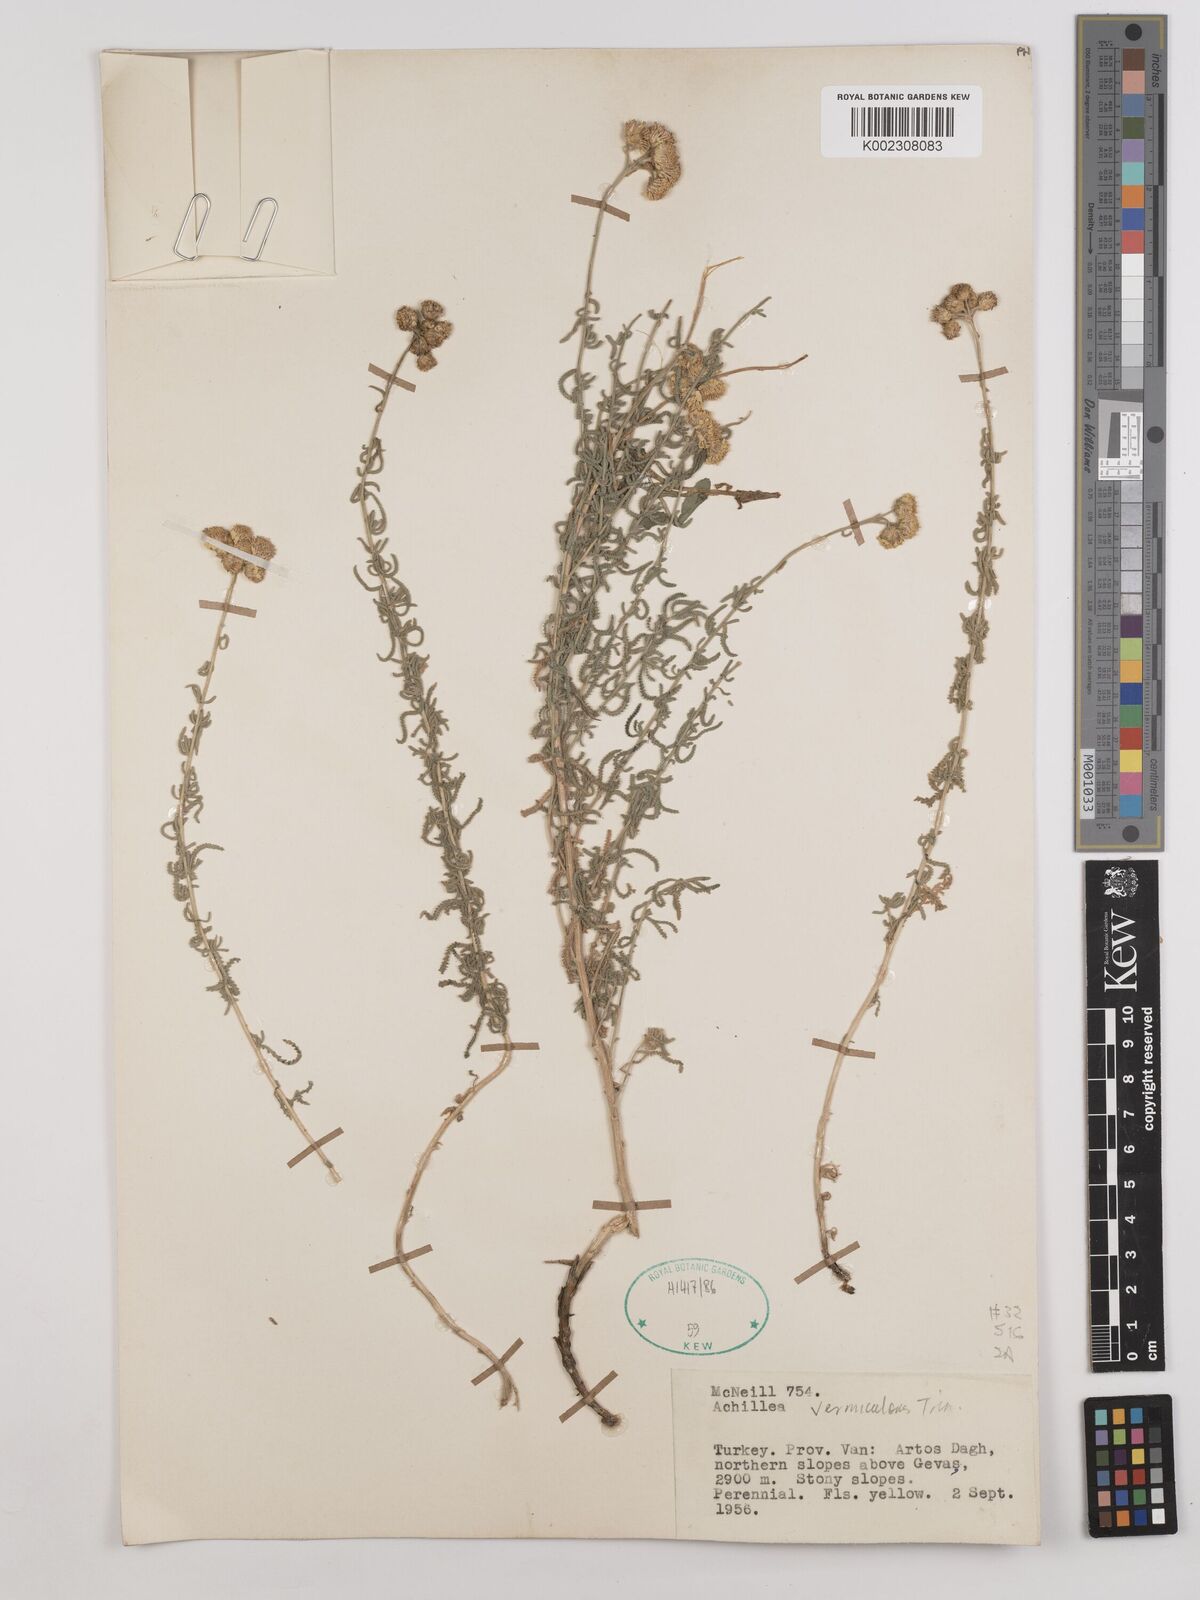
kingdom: Plantae
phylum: Tracheophyta
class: Magnoliopsida
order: Asterales
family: Asteraceae
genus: Achillea
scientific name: Achillea vermicularis
